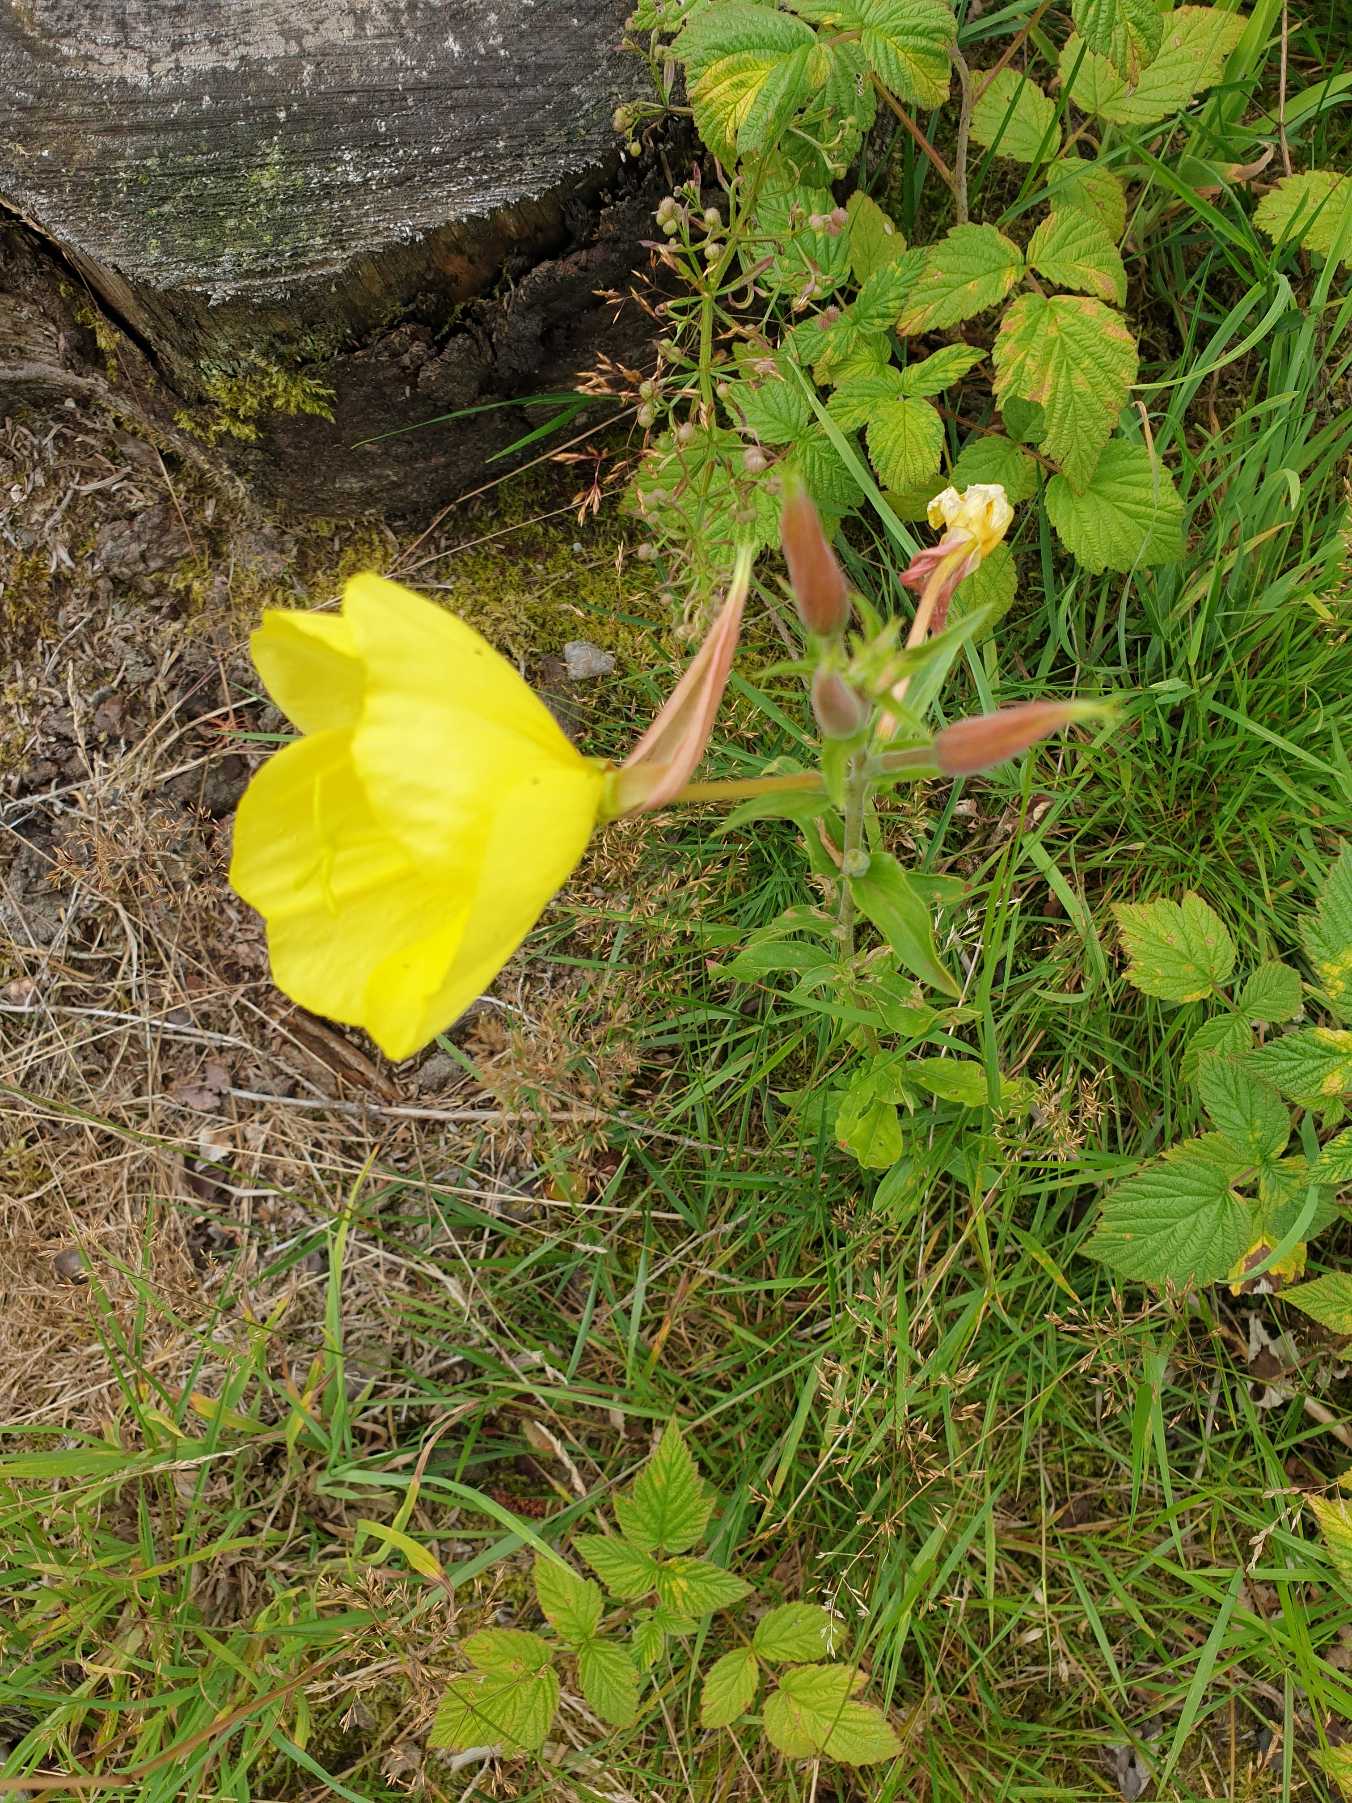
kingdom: Plantae
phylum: Tracheophyta
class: Magnoliopsida
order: Myrtales
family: Onagraceae
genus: Oenothera
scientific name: Oenothera glazioviana
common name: Kæmpe-natlys
